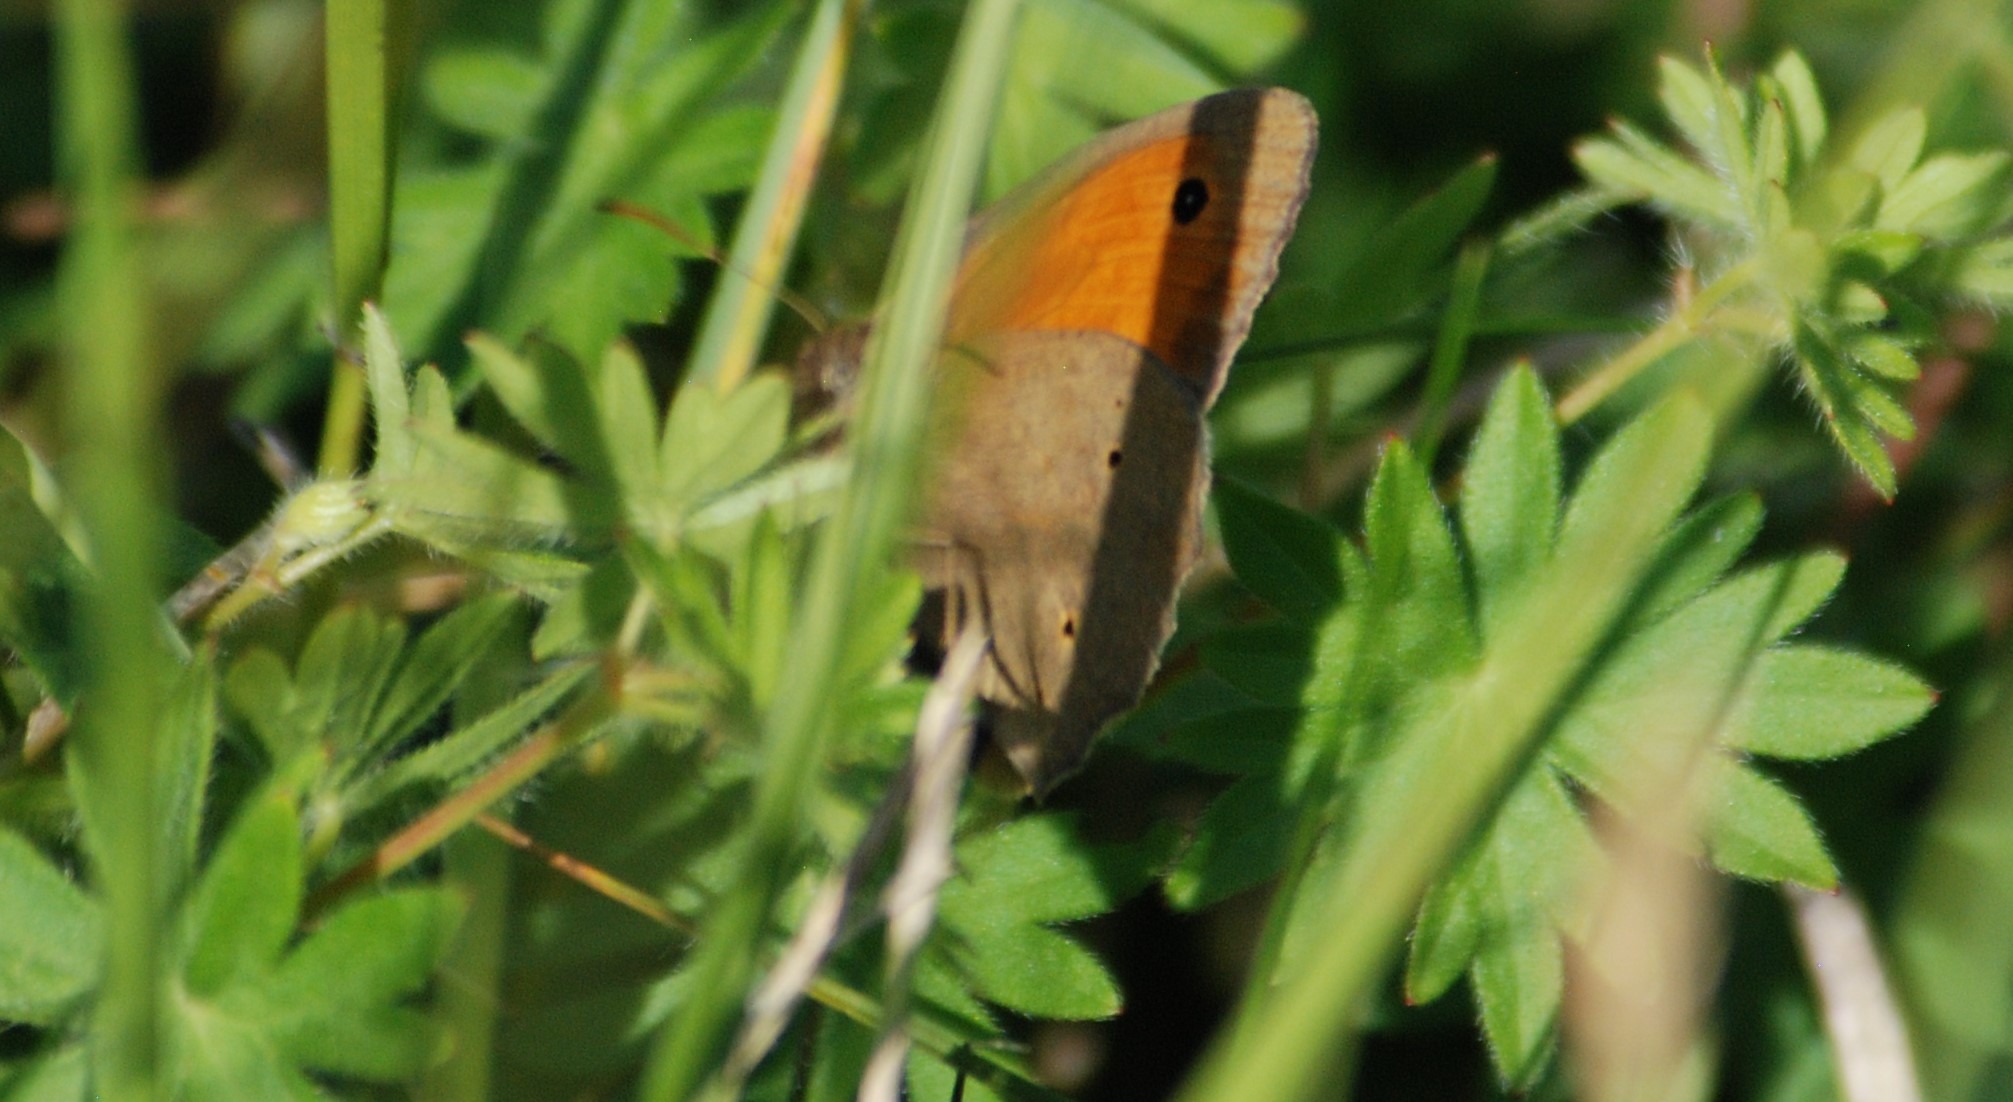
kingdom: Animalia
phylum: Arthropoda
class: Insecta
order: Lepidoptera
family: Nymphalidae
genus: Maniola
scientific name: Maniola jurtina
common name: Græsrandøje
